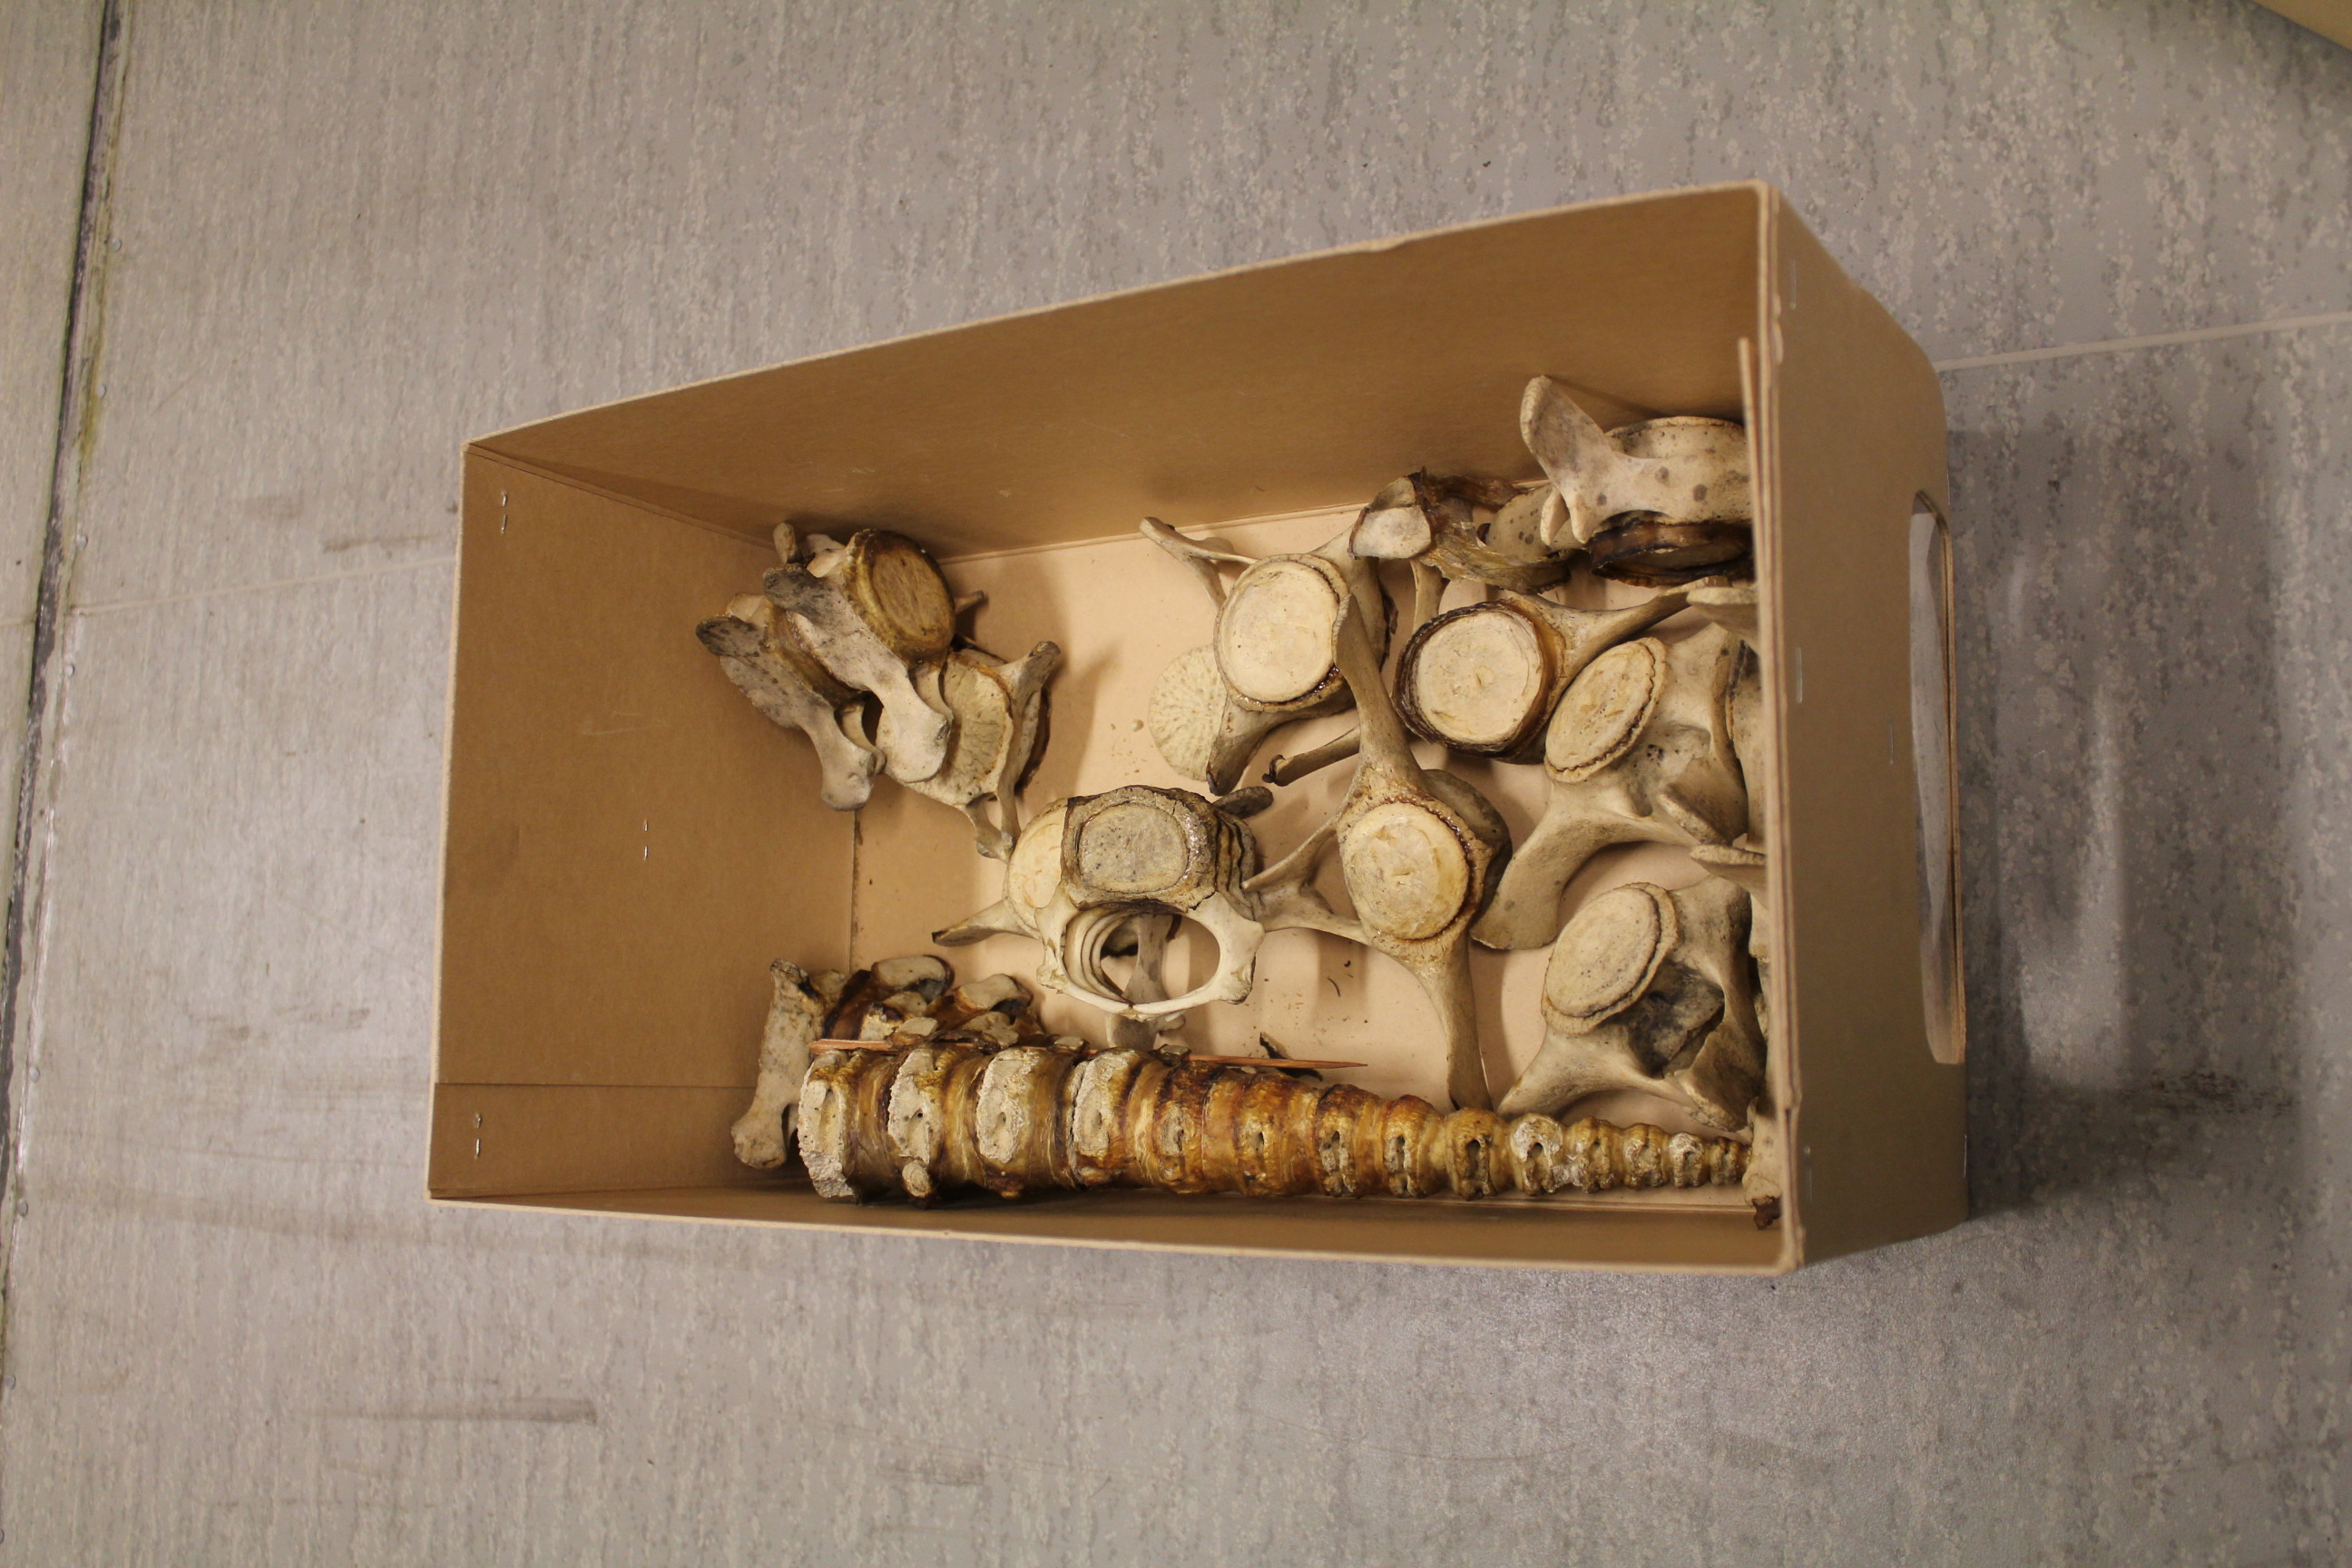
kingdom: Animalia
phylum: Chordata
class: Mammalia
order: Cetacea
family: Monodontidae
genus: Delphinapterus
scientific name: Delphinapterus leucas
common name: Beluga
